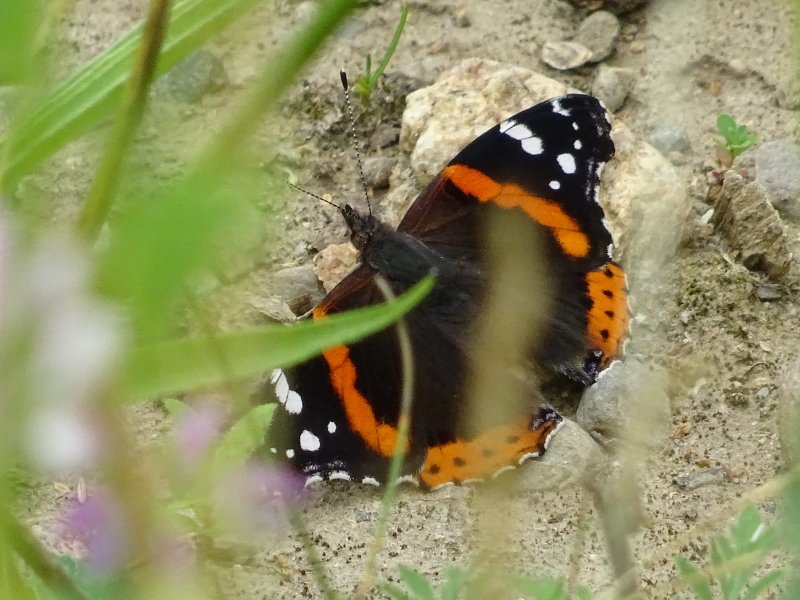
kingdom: Animalia
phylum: Arthropoda
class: Insecta
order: Lepidoptera
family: Nymphalidae
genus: Vanessa
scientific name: Vanessa atalanta
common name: Red Admiral
